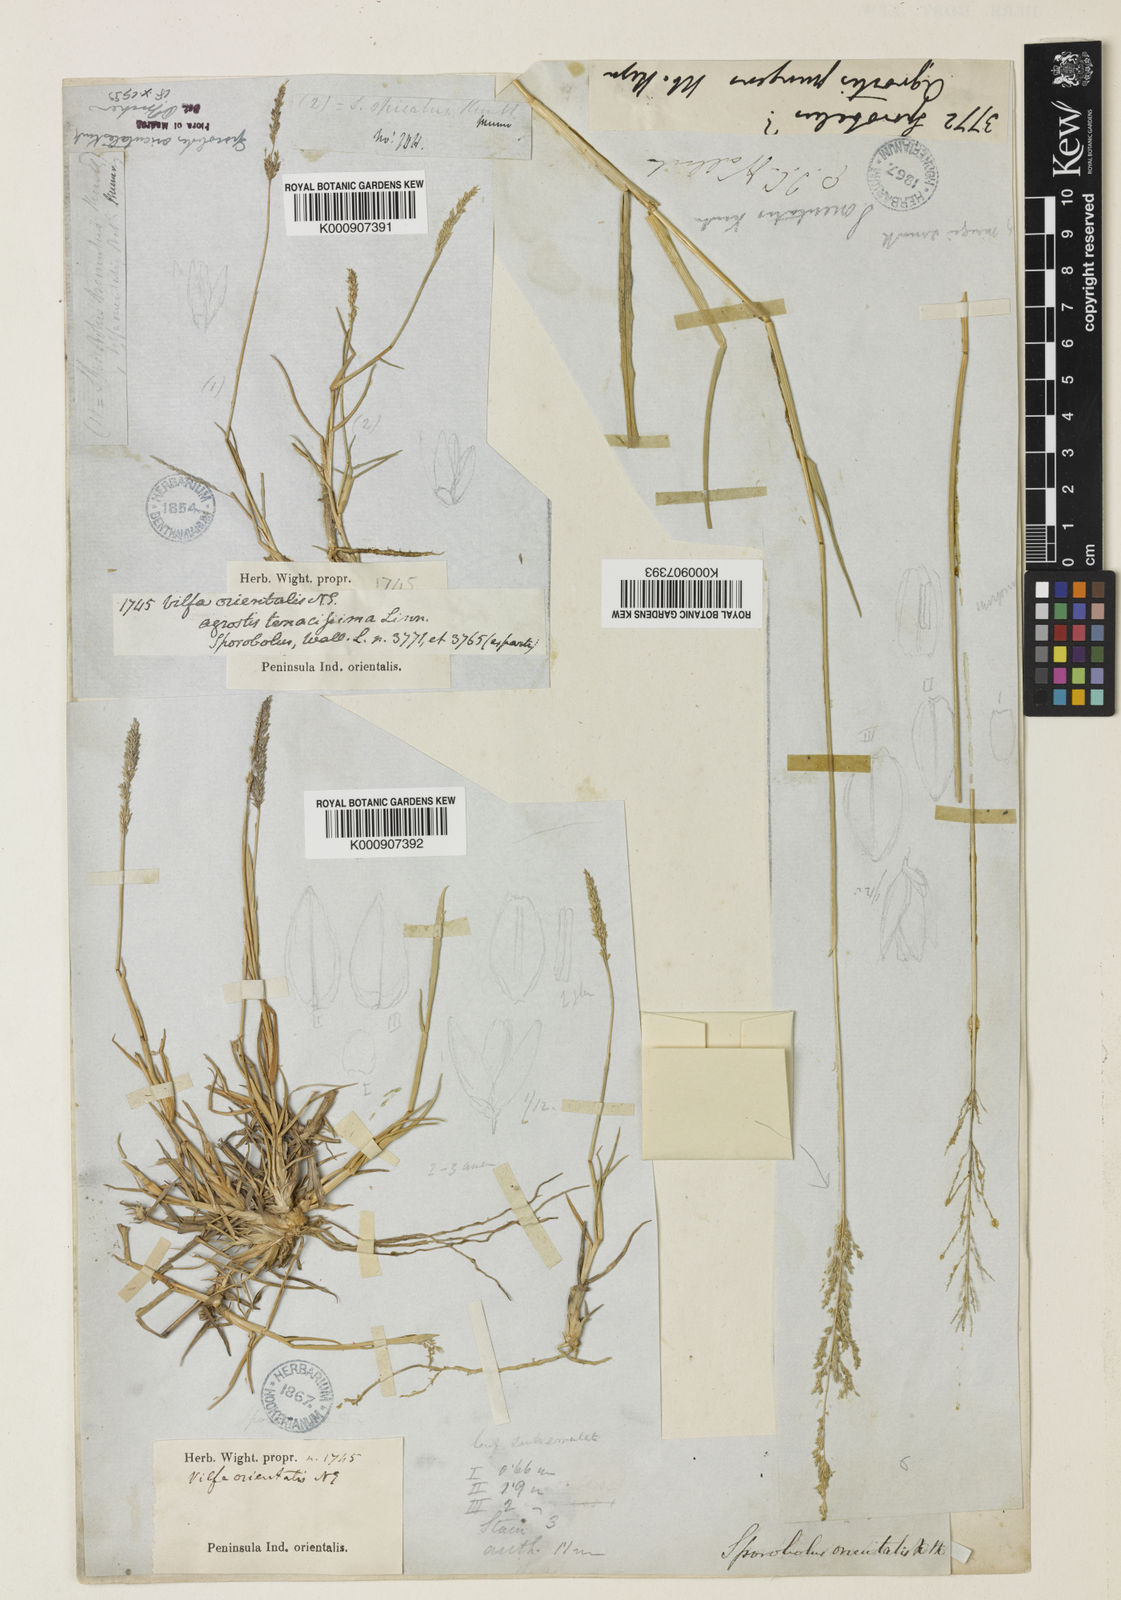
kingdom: Plantae
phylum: Tracheophyta
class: Liliopsida
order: Poales
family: Poaceae
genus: Sporobolus
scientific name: Sporobolus maderaspatanus
